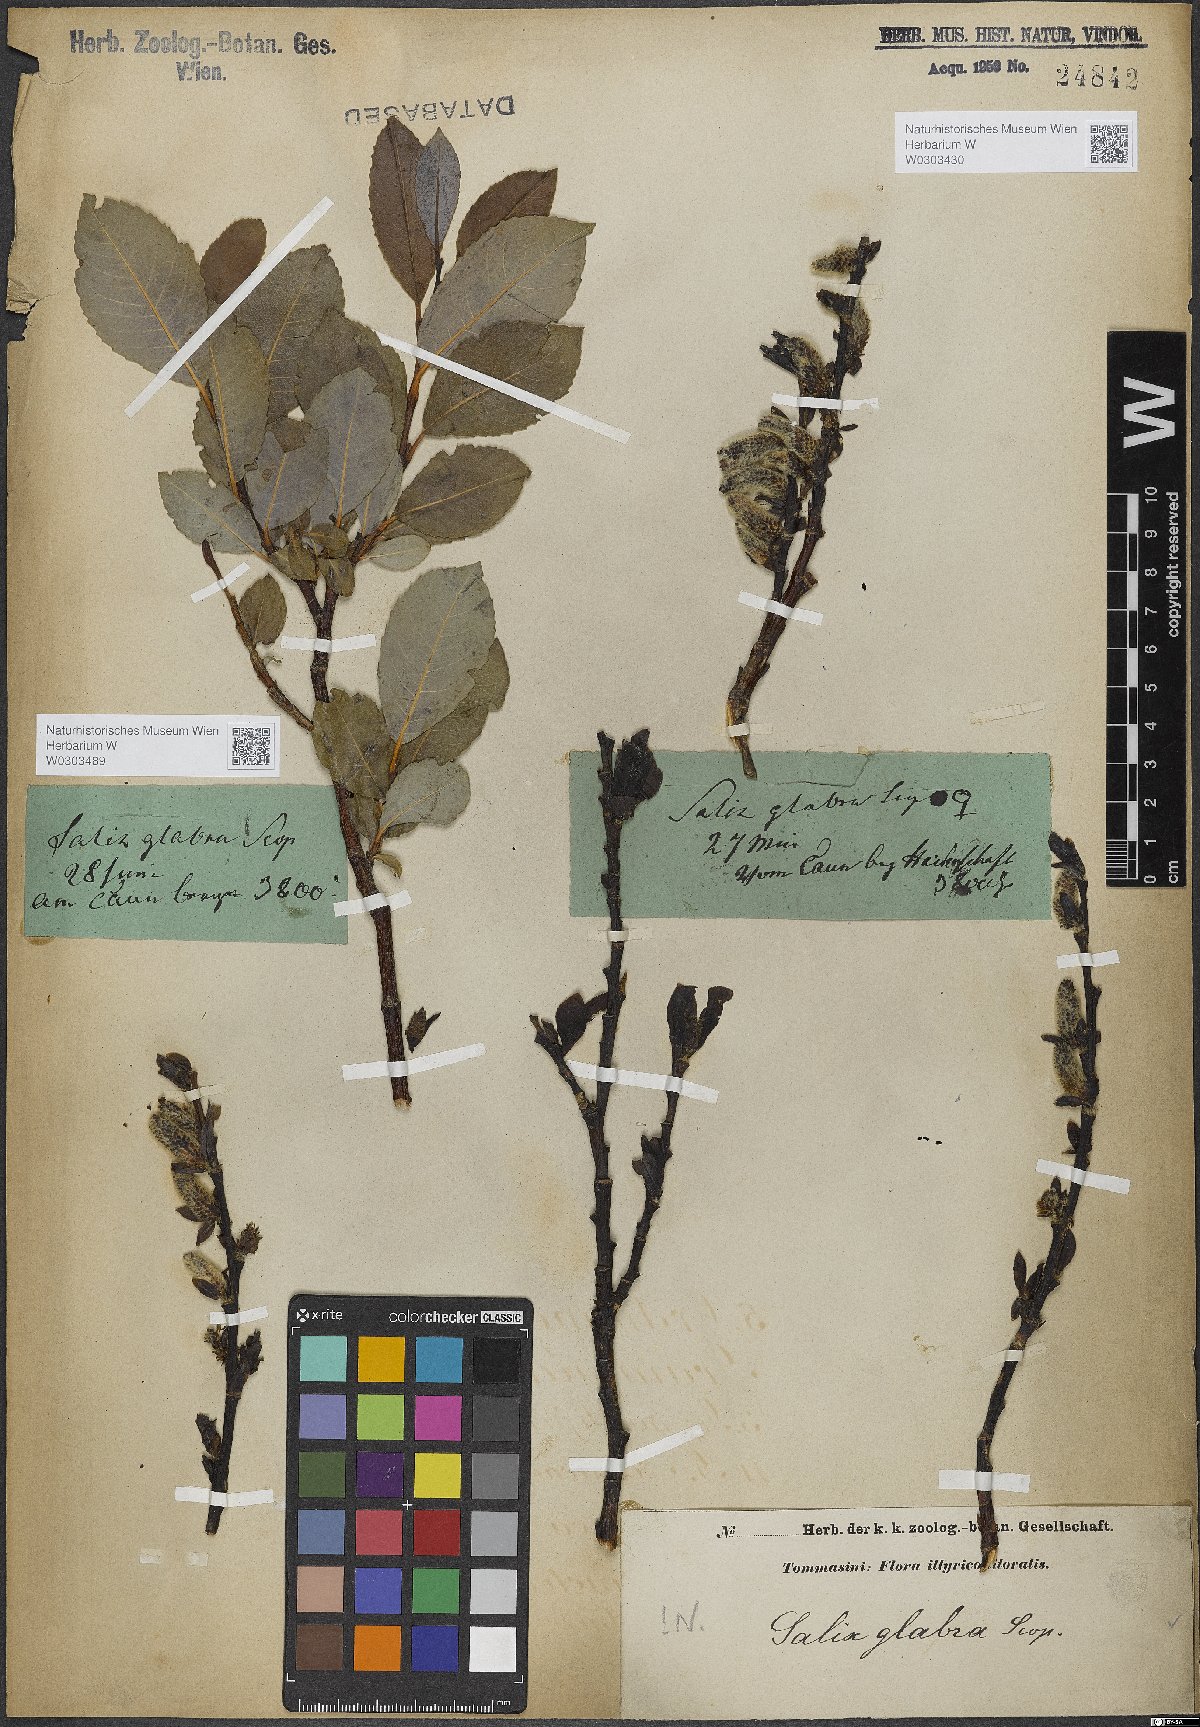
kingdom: Plantae
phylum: Tracheophyta
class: Magnoliopsida
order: Malpighiales
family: Salicaceae
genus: Salix
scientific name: Salix glabra
